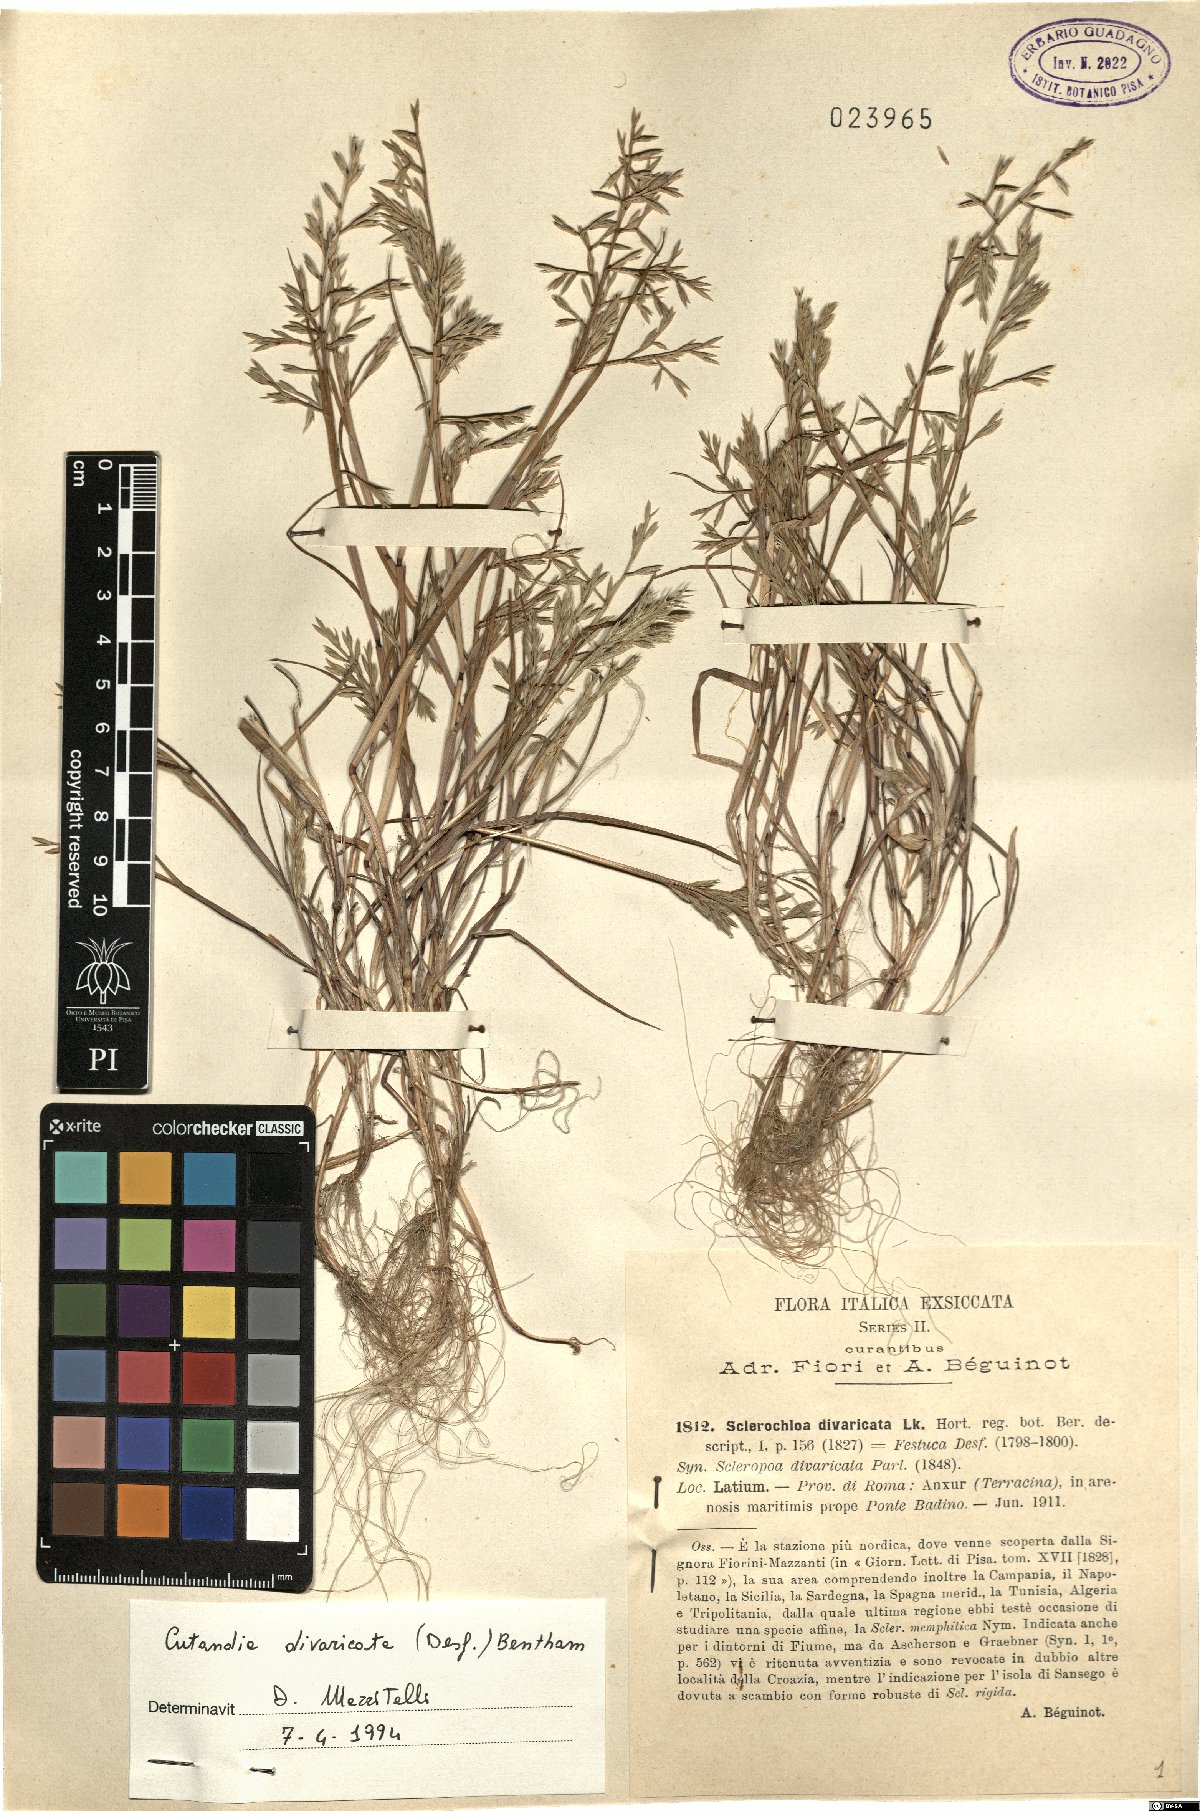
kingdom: Plantae
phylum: Tracheophyta
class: Liliopsida
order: Poales
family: Poaceae
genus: Cutandia
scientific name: Cutandia divaricata
